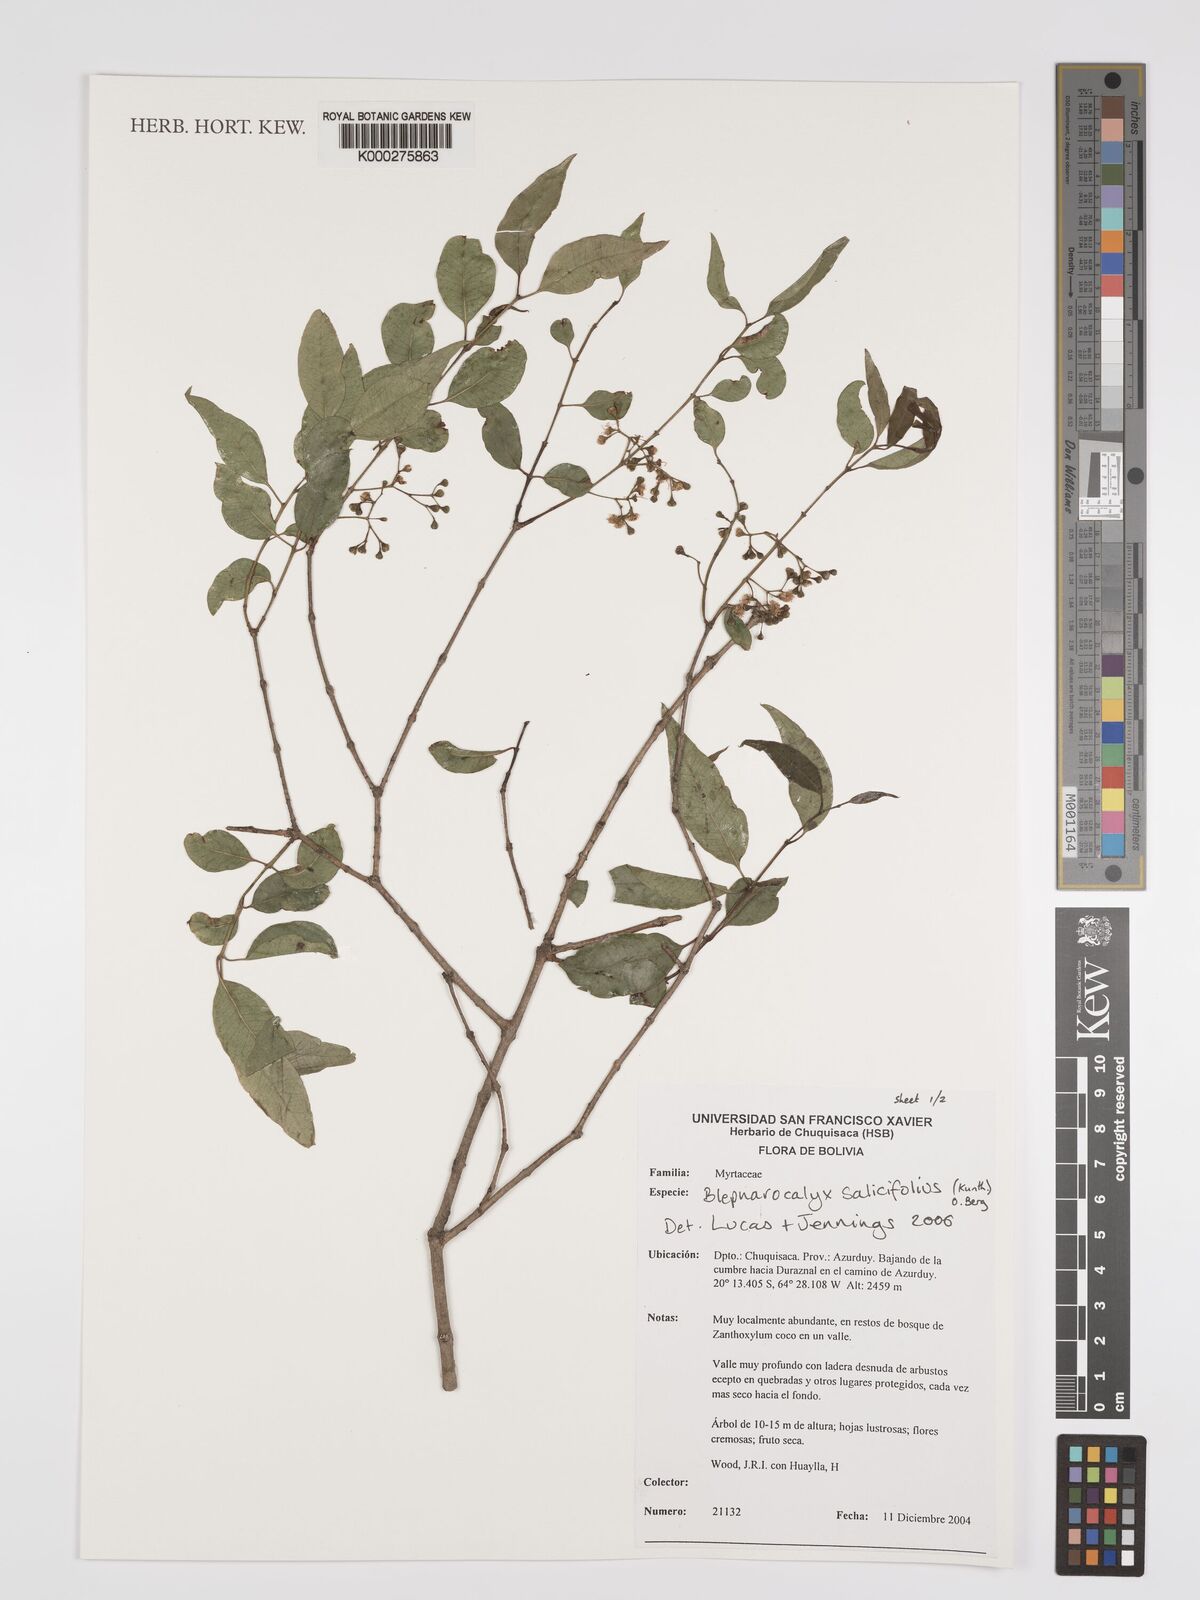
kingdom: Plantae
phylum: Tracheophyta
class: Magnoliopsida
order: Myrtales
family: Myrtaceae
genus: Blepharocalyx
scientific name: Blepharocalyx salicifolius
